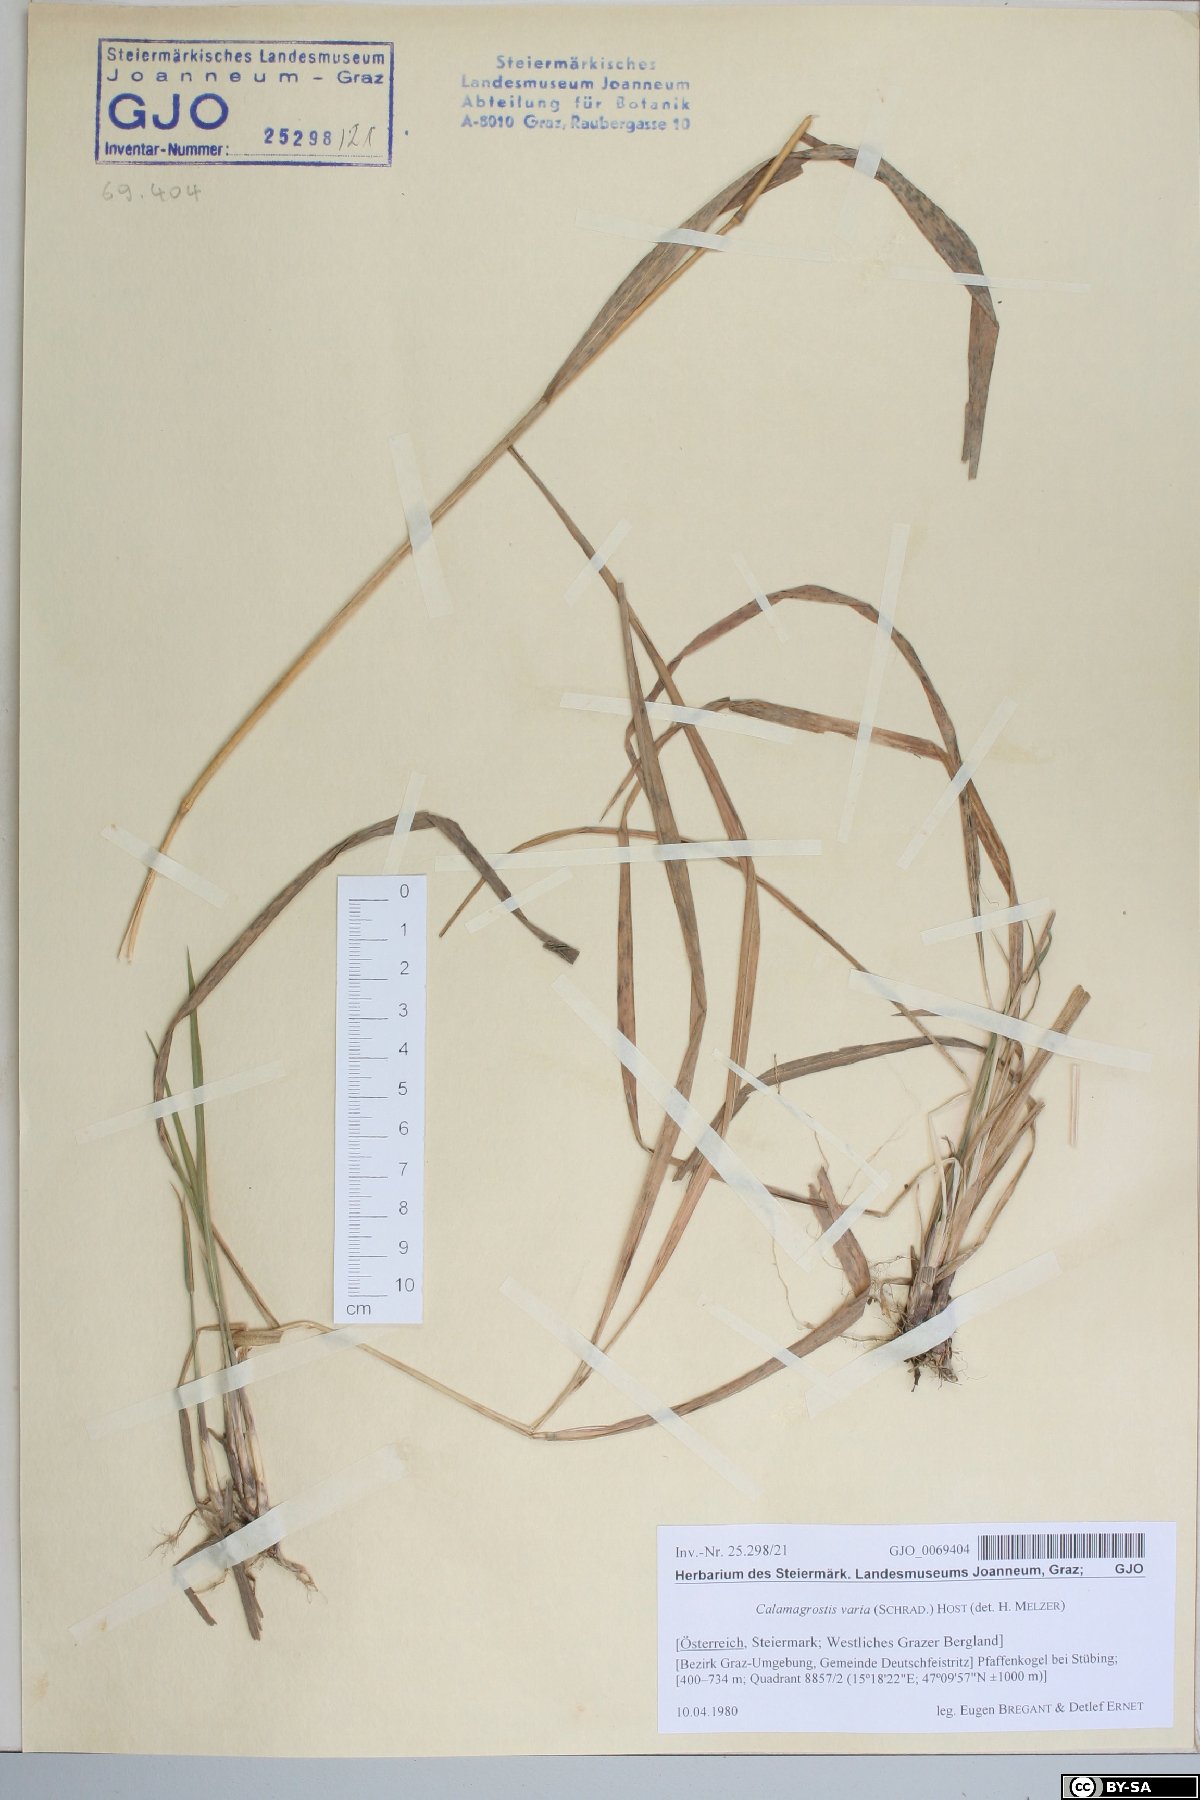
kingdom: Plantae
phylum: Tracheophyta
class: Liliopsida
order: Poales
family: Poaceae
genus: Calamagrostis
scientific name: Calamagrostis varia
